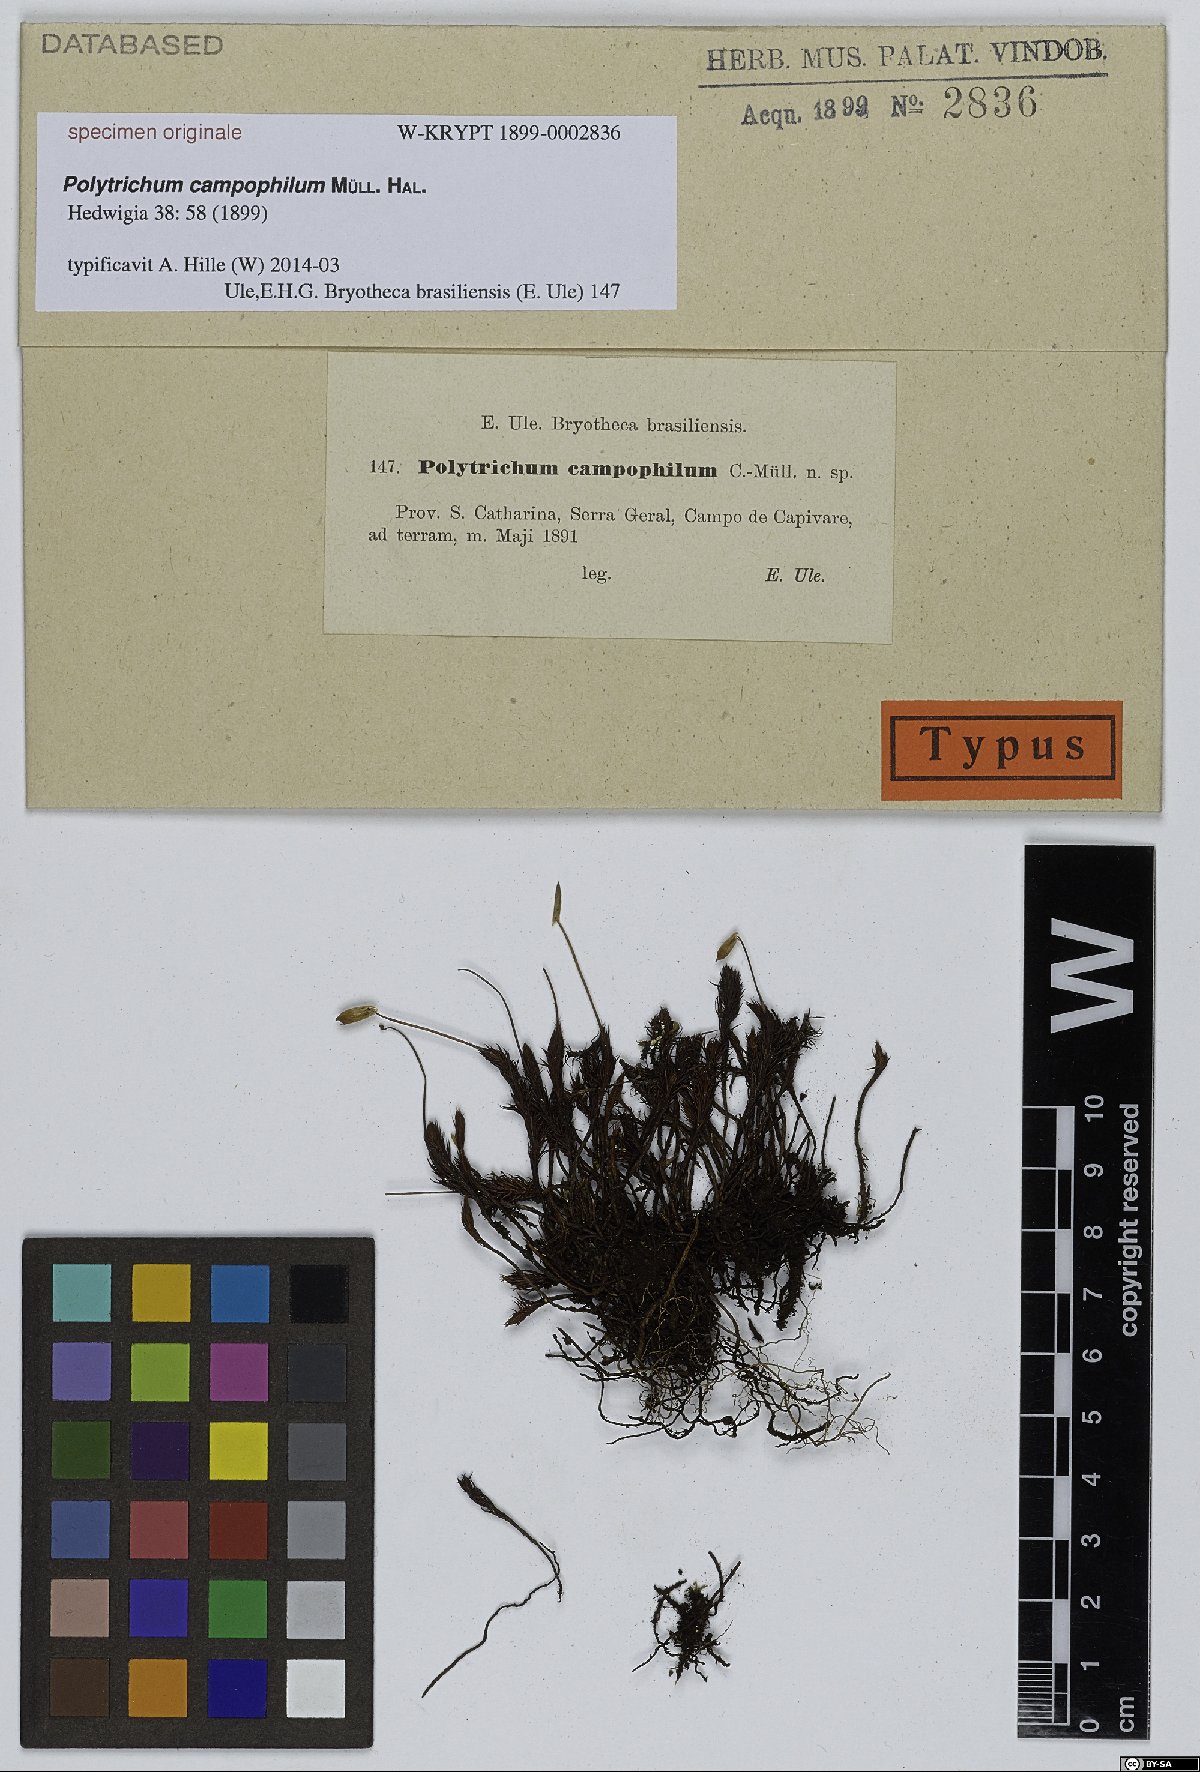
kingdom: Plantae
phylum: Bryophyta
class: Polytrichopsida
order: Polytrichales
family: Polytrichaceae
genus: Pogonatum
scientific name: Pogonatum pensilvanicum
